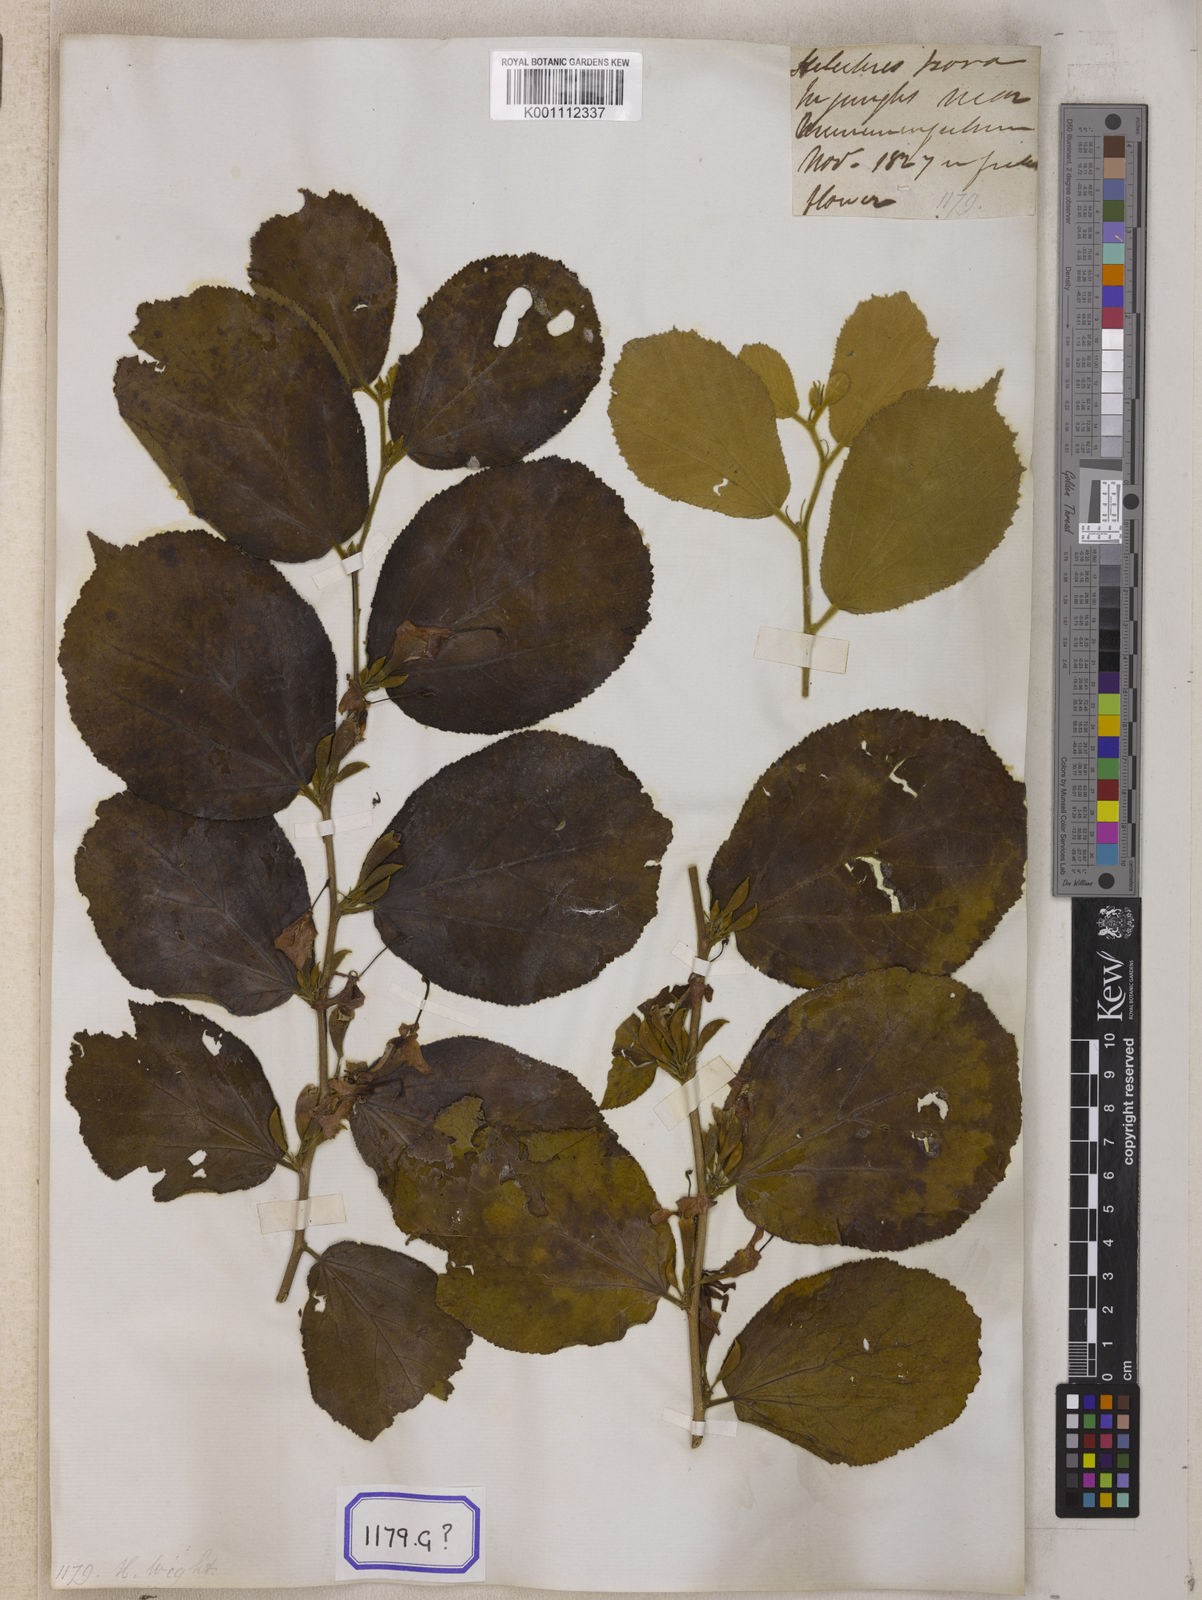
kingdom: Plantae
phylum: Tracheophyta
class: Magnoliopsida
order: Malvales
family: Malvaceae
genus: Helicteres
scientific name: Helicteres isora
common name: East indian screwtree
